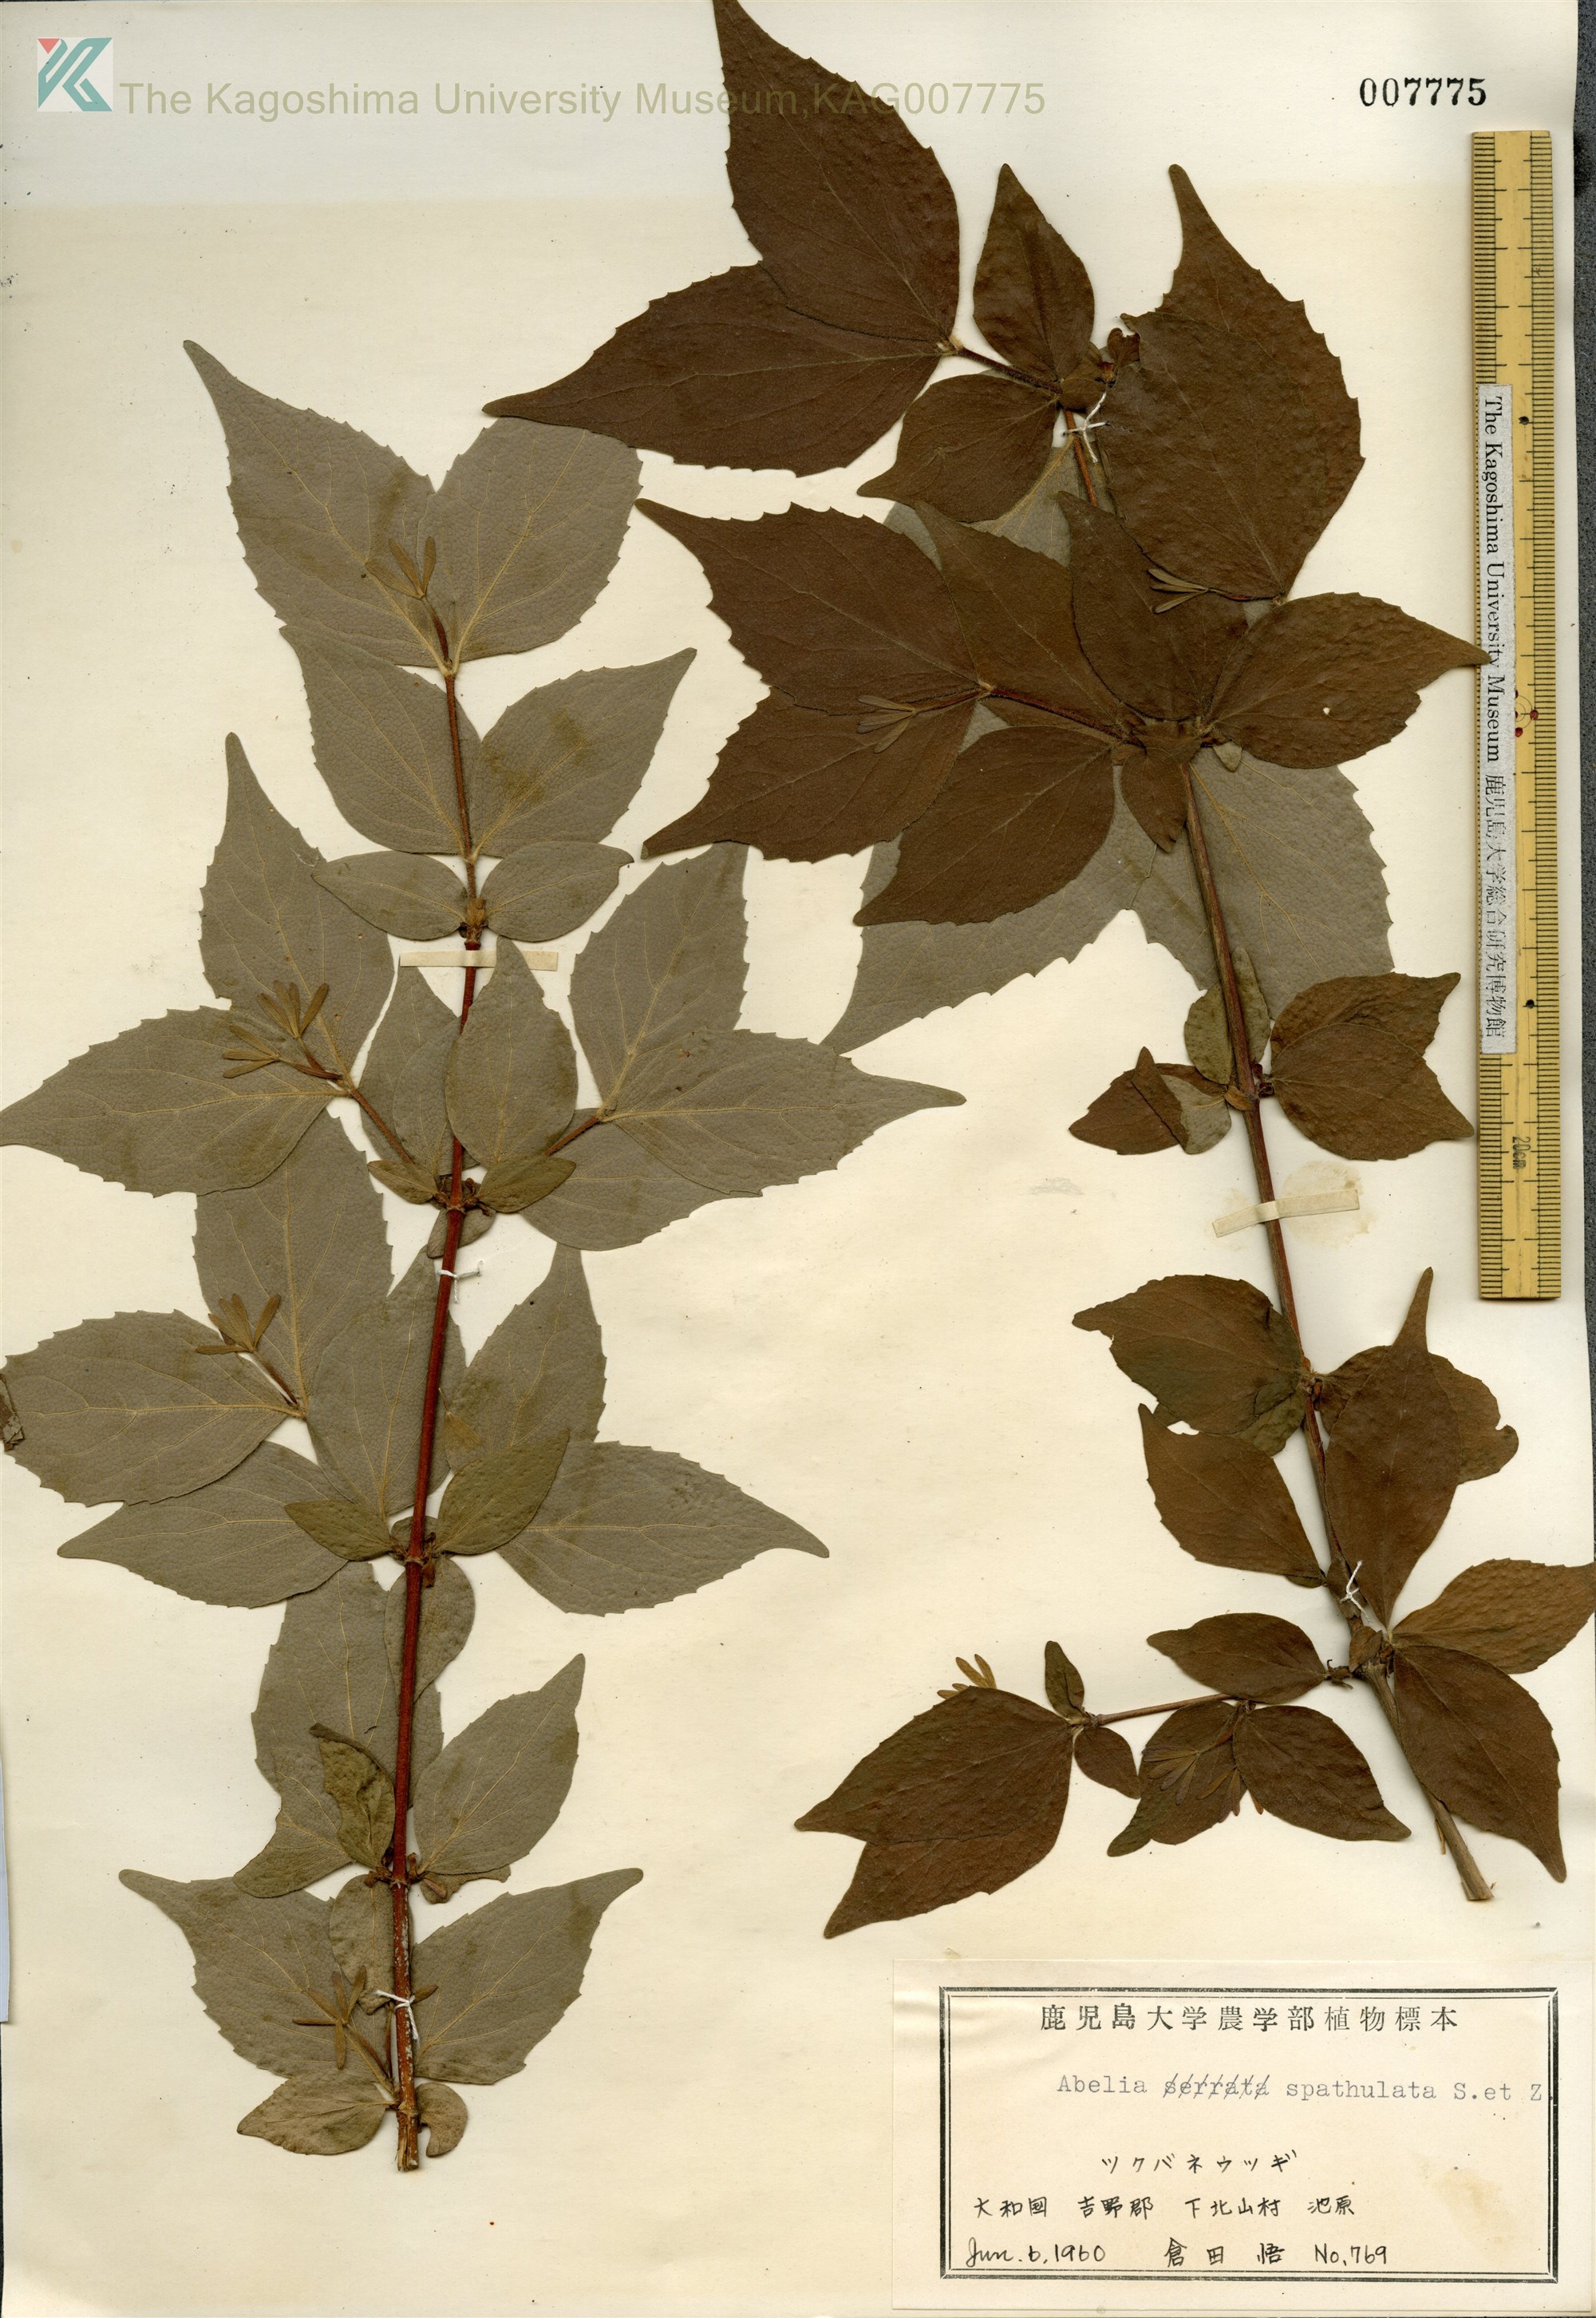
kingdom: Plantae
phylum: Tracheophyta
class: Magnoliopsida
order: Dipsacales
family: Caprifoliaceae
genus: Diabelia
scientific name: Diabelia spathulata
